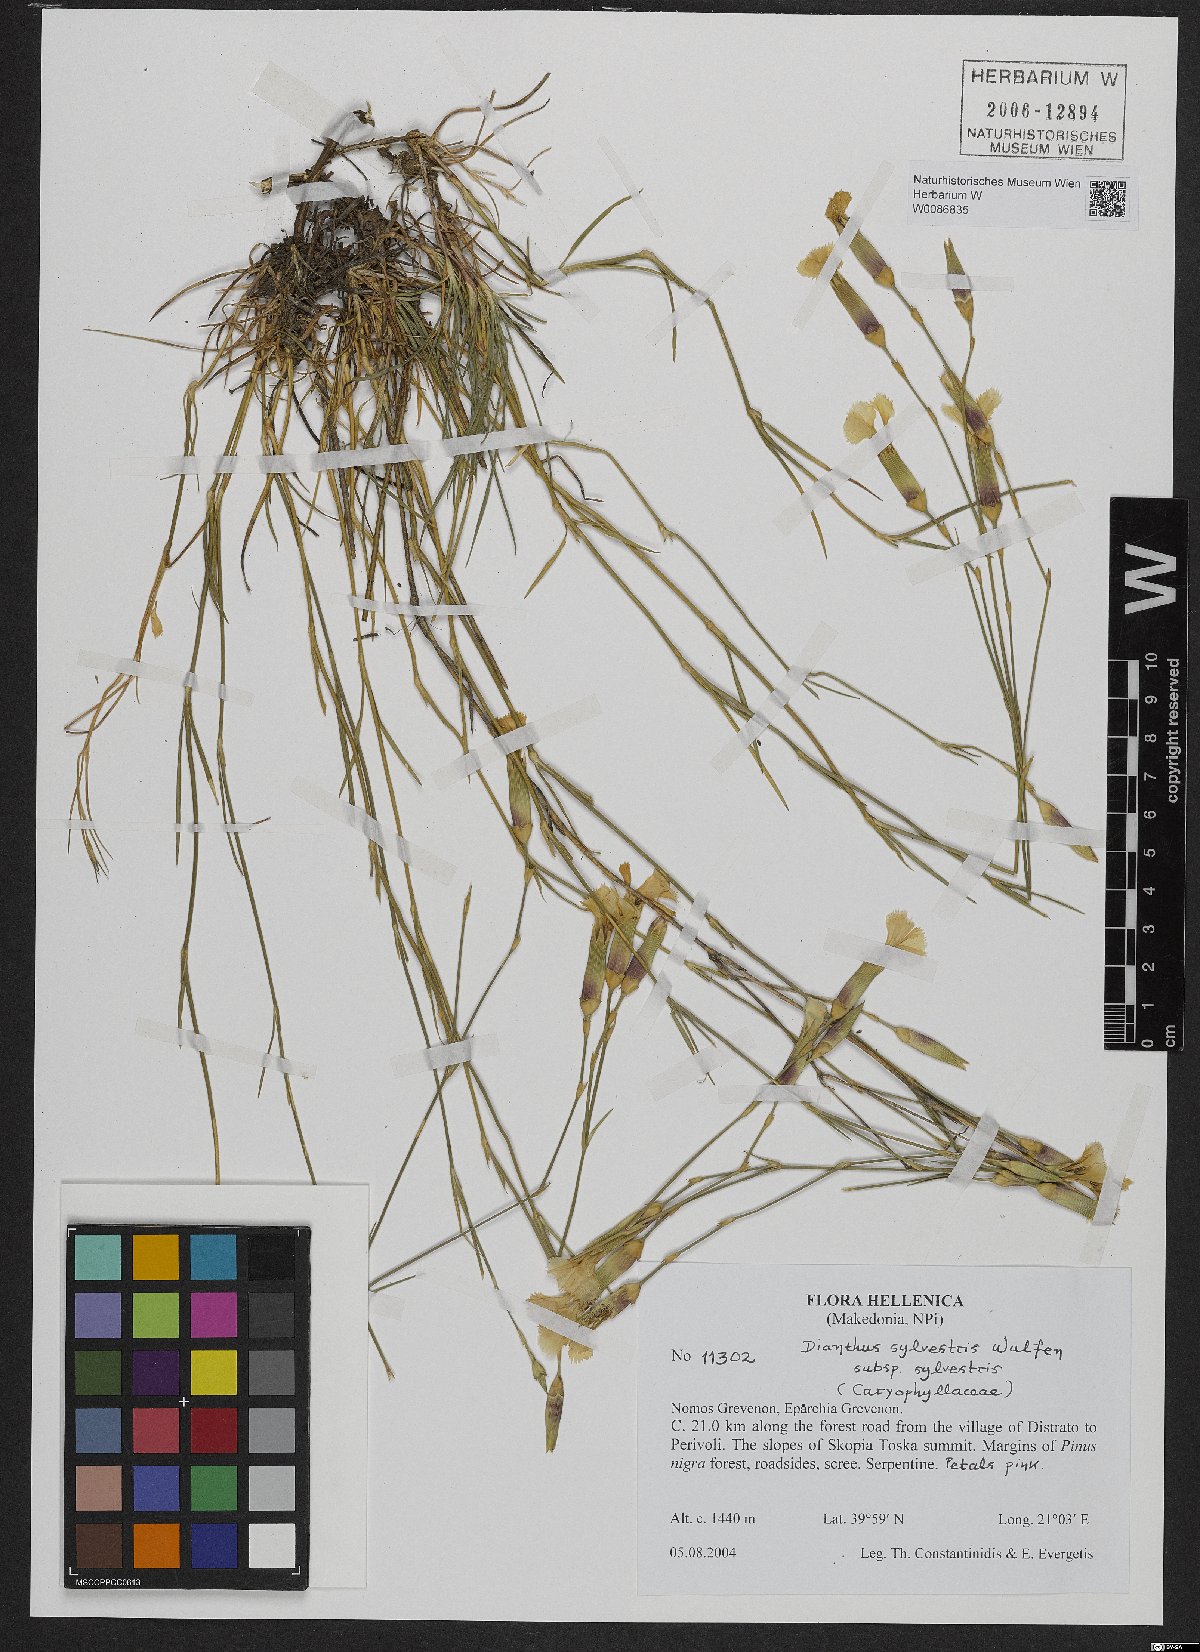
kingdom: Plantae
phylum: Tracheophyta
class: Magnoliopsida
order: Caryophyllales
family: Caryophyllaceae
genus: Dianthus
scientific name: Dianthus sylvestris
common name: Wood pink
